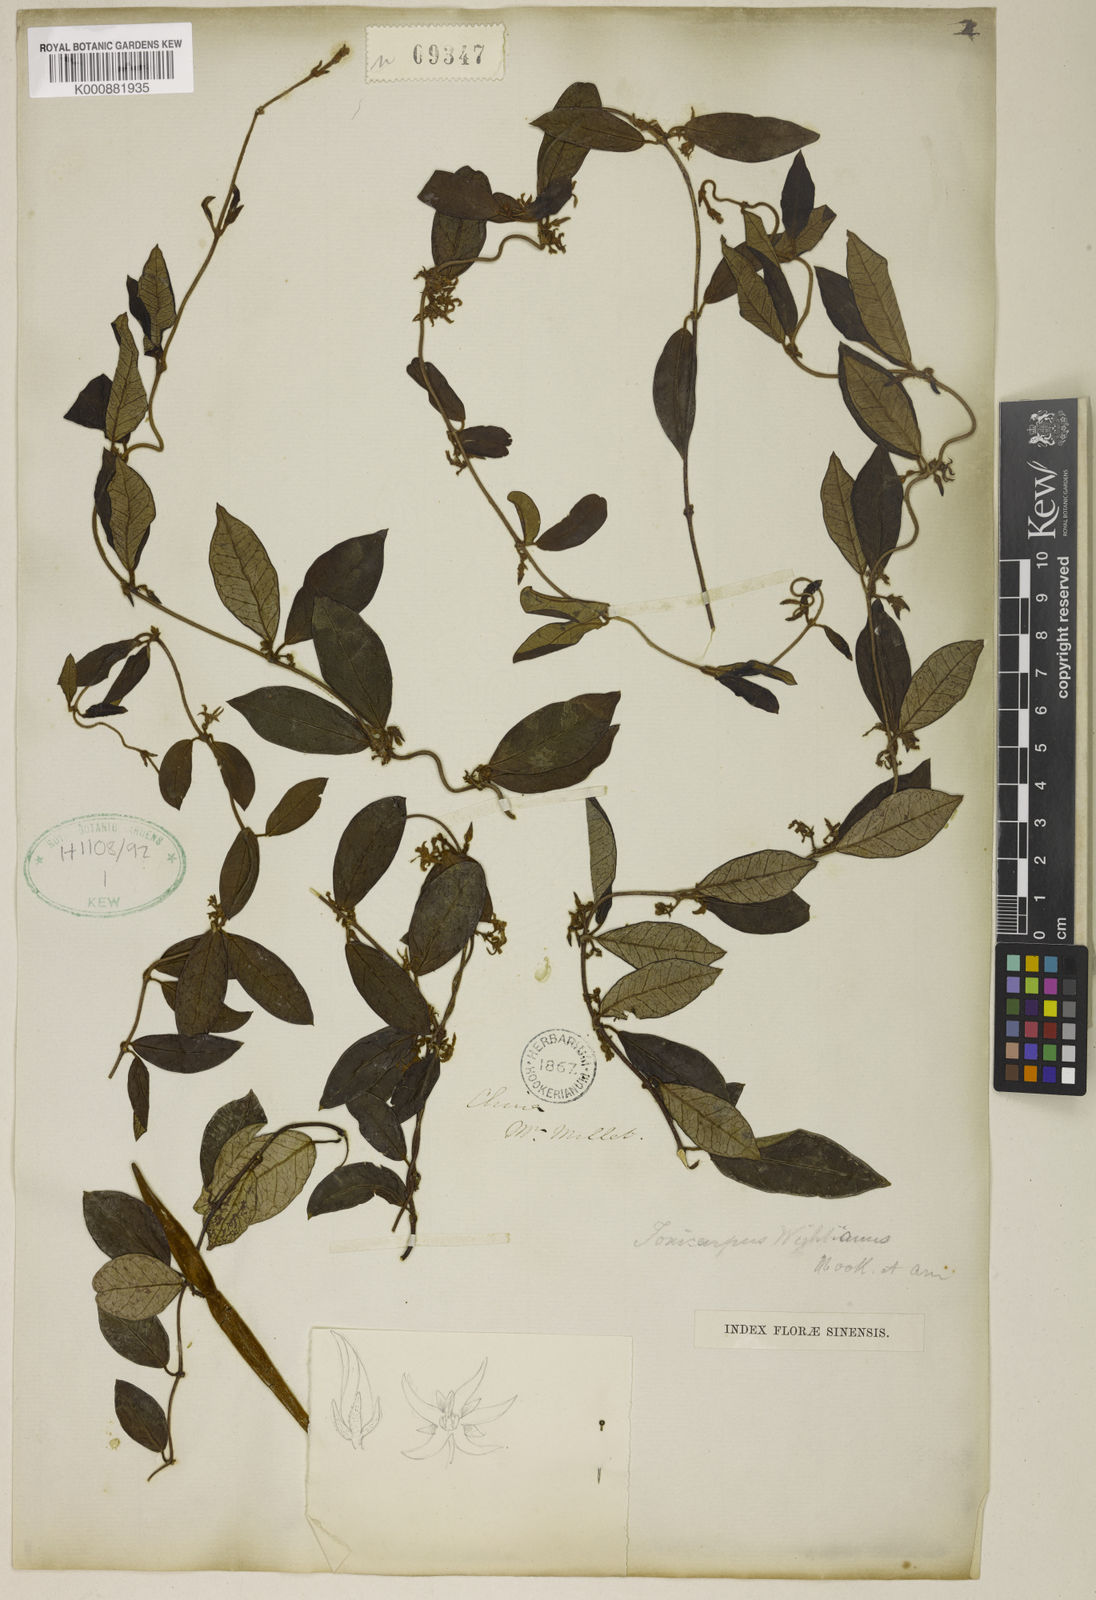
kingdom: Plantae
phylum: Tracheophyta
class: Magnoliopsida
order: Gentianales
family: Apocynaceae
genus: Toxocarpus
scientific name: Toxocarpus wightianus
